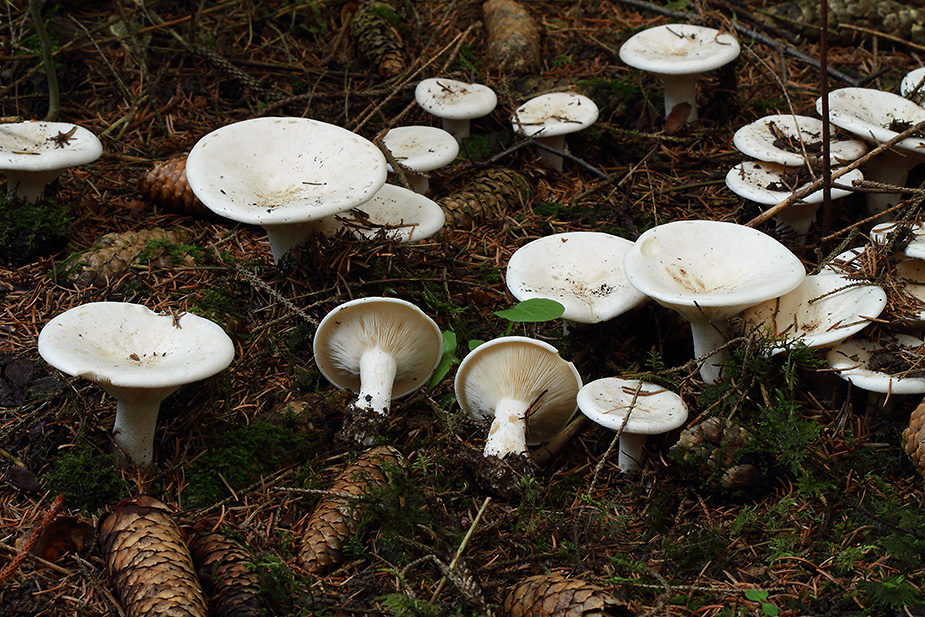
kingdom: Fungi
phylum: Basidiomycota
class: Agaricomycetes
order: Agaricales
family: Tricholomataceae
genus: Aspropaxillus
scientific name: Aspropaxillus giganteus
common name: kæmpe-tragtridderhat
